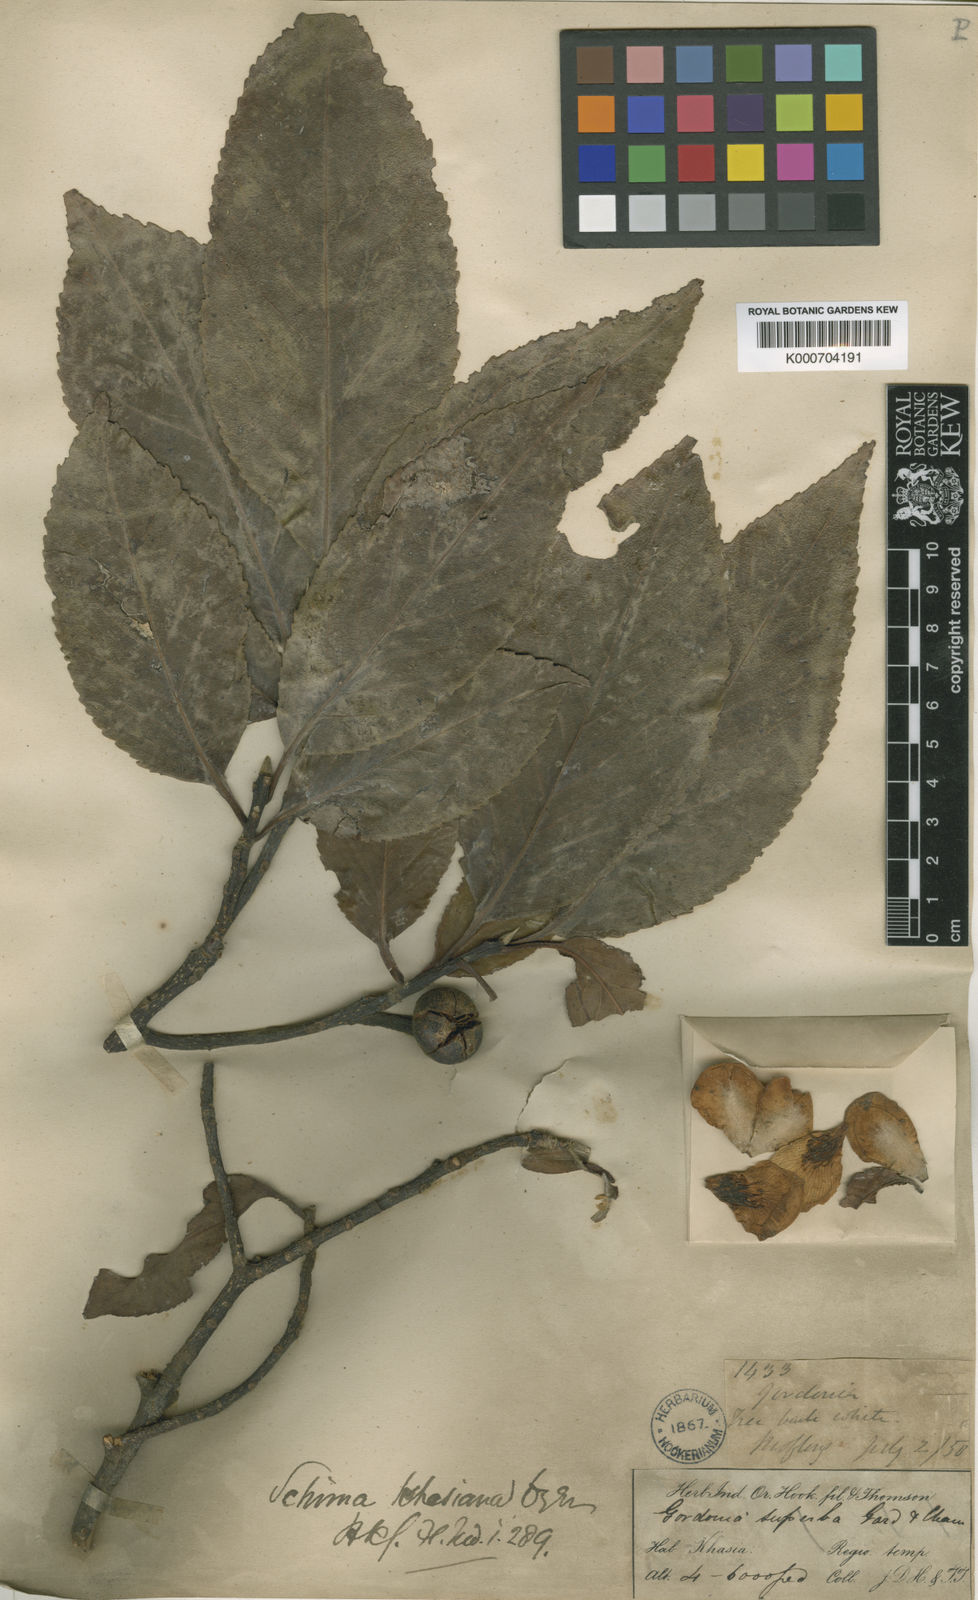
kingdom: Plantae
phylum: Tracheophyta
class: Magnoliopsida
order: Ericales
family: Theaceae
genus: Schima
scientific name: Schima
